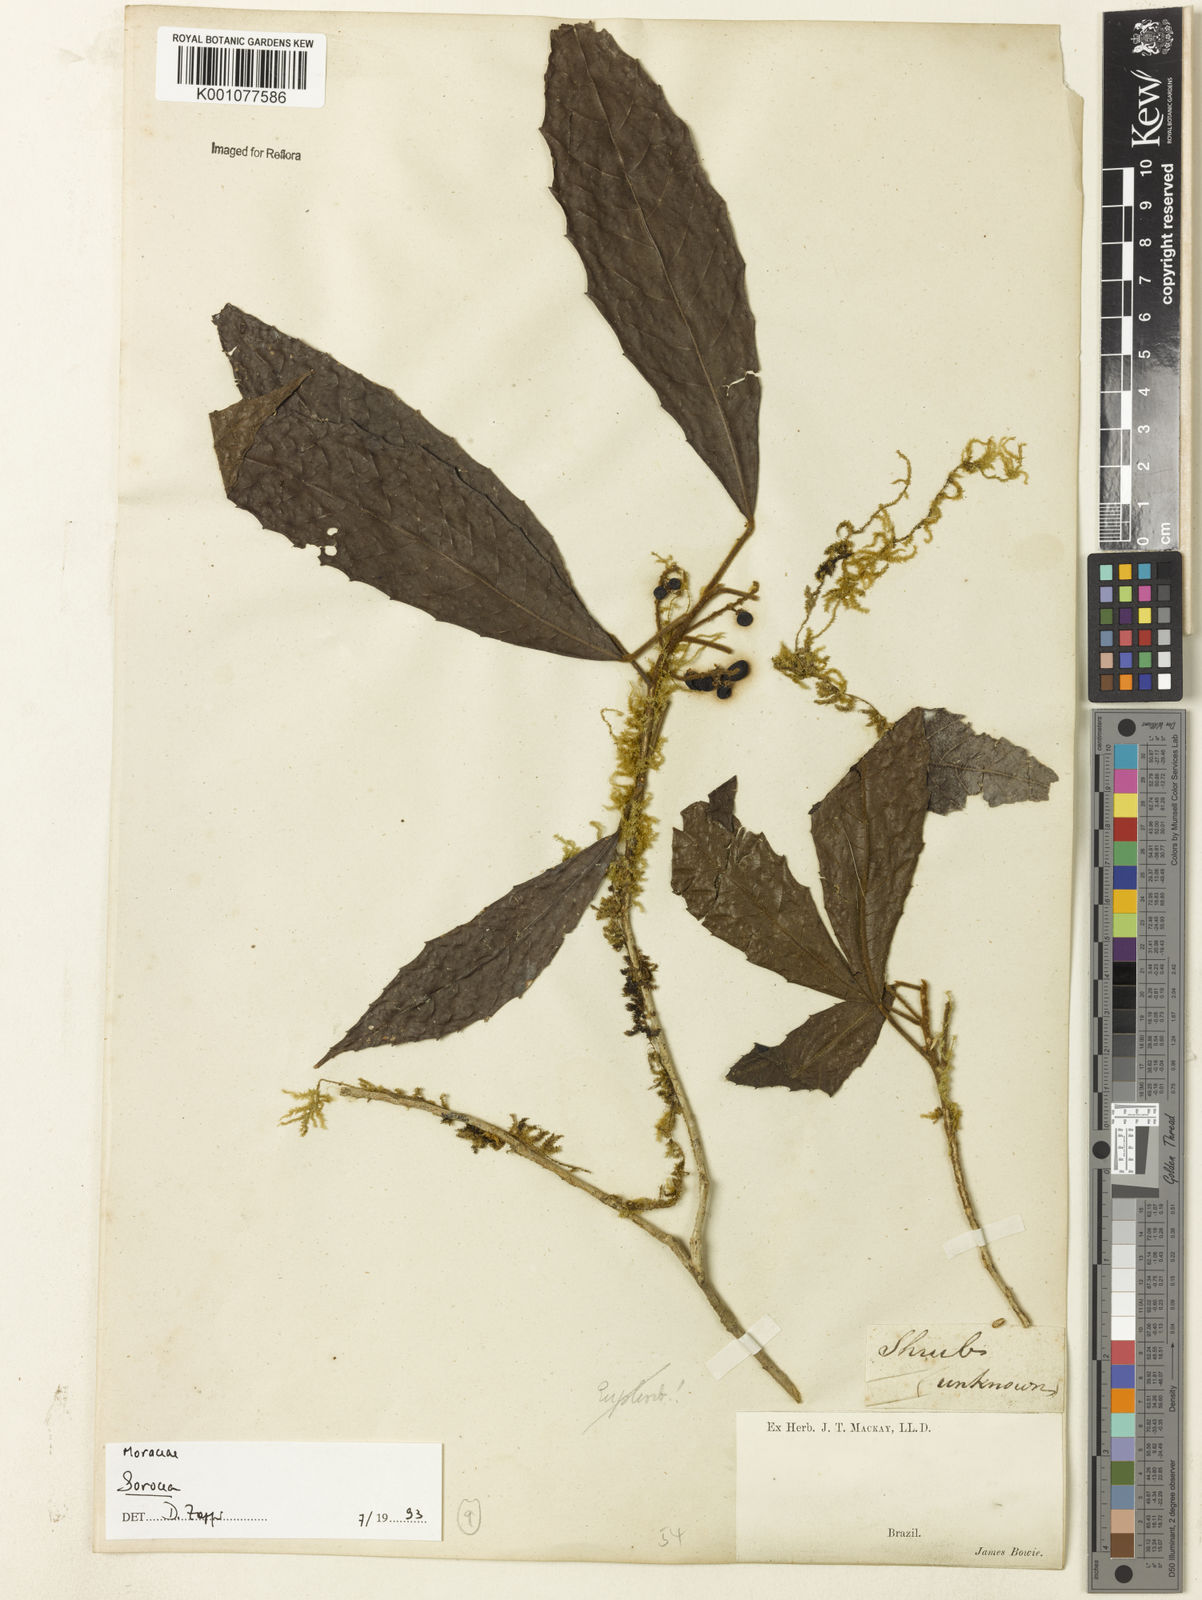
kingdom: Plantae
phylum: Tracheophyta
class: Magnoliopsida
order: Rosales
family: Moraceae
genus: Sorocea
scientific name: Sorocea
